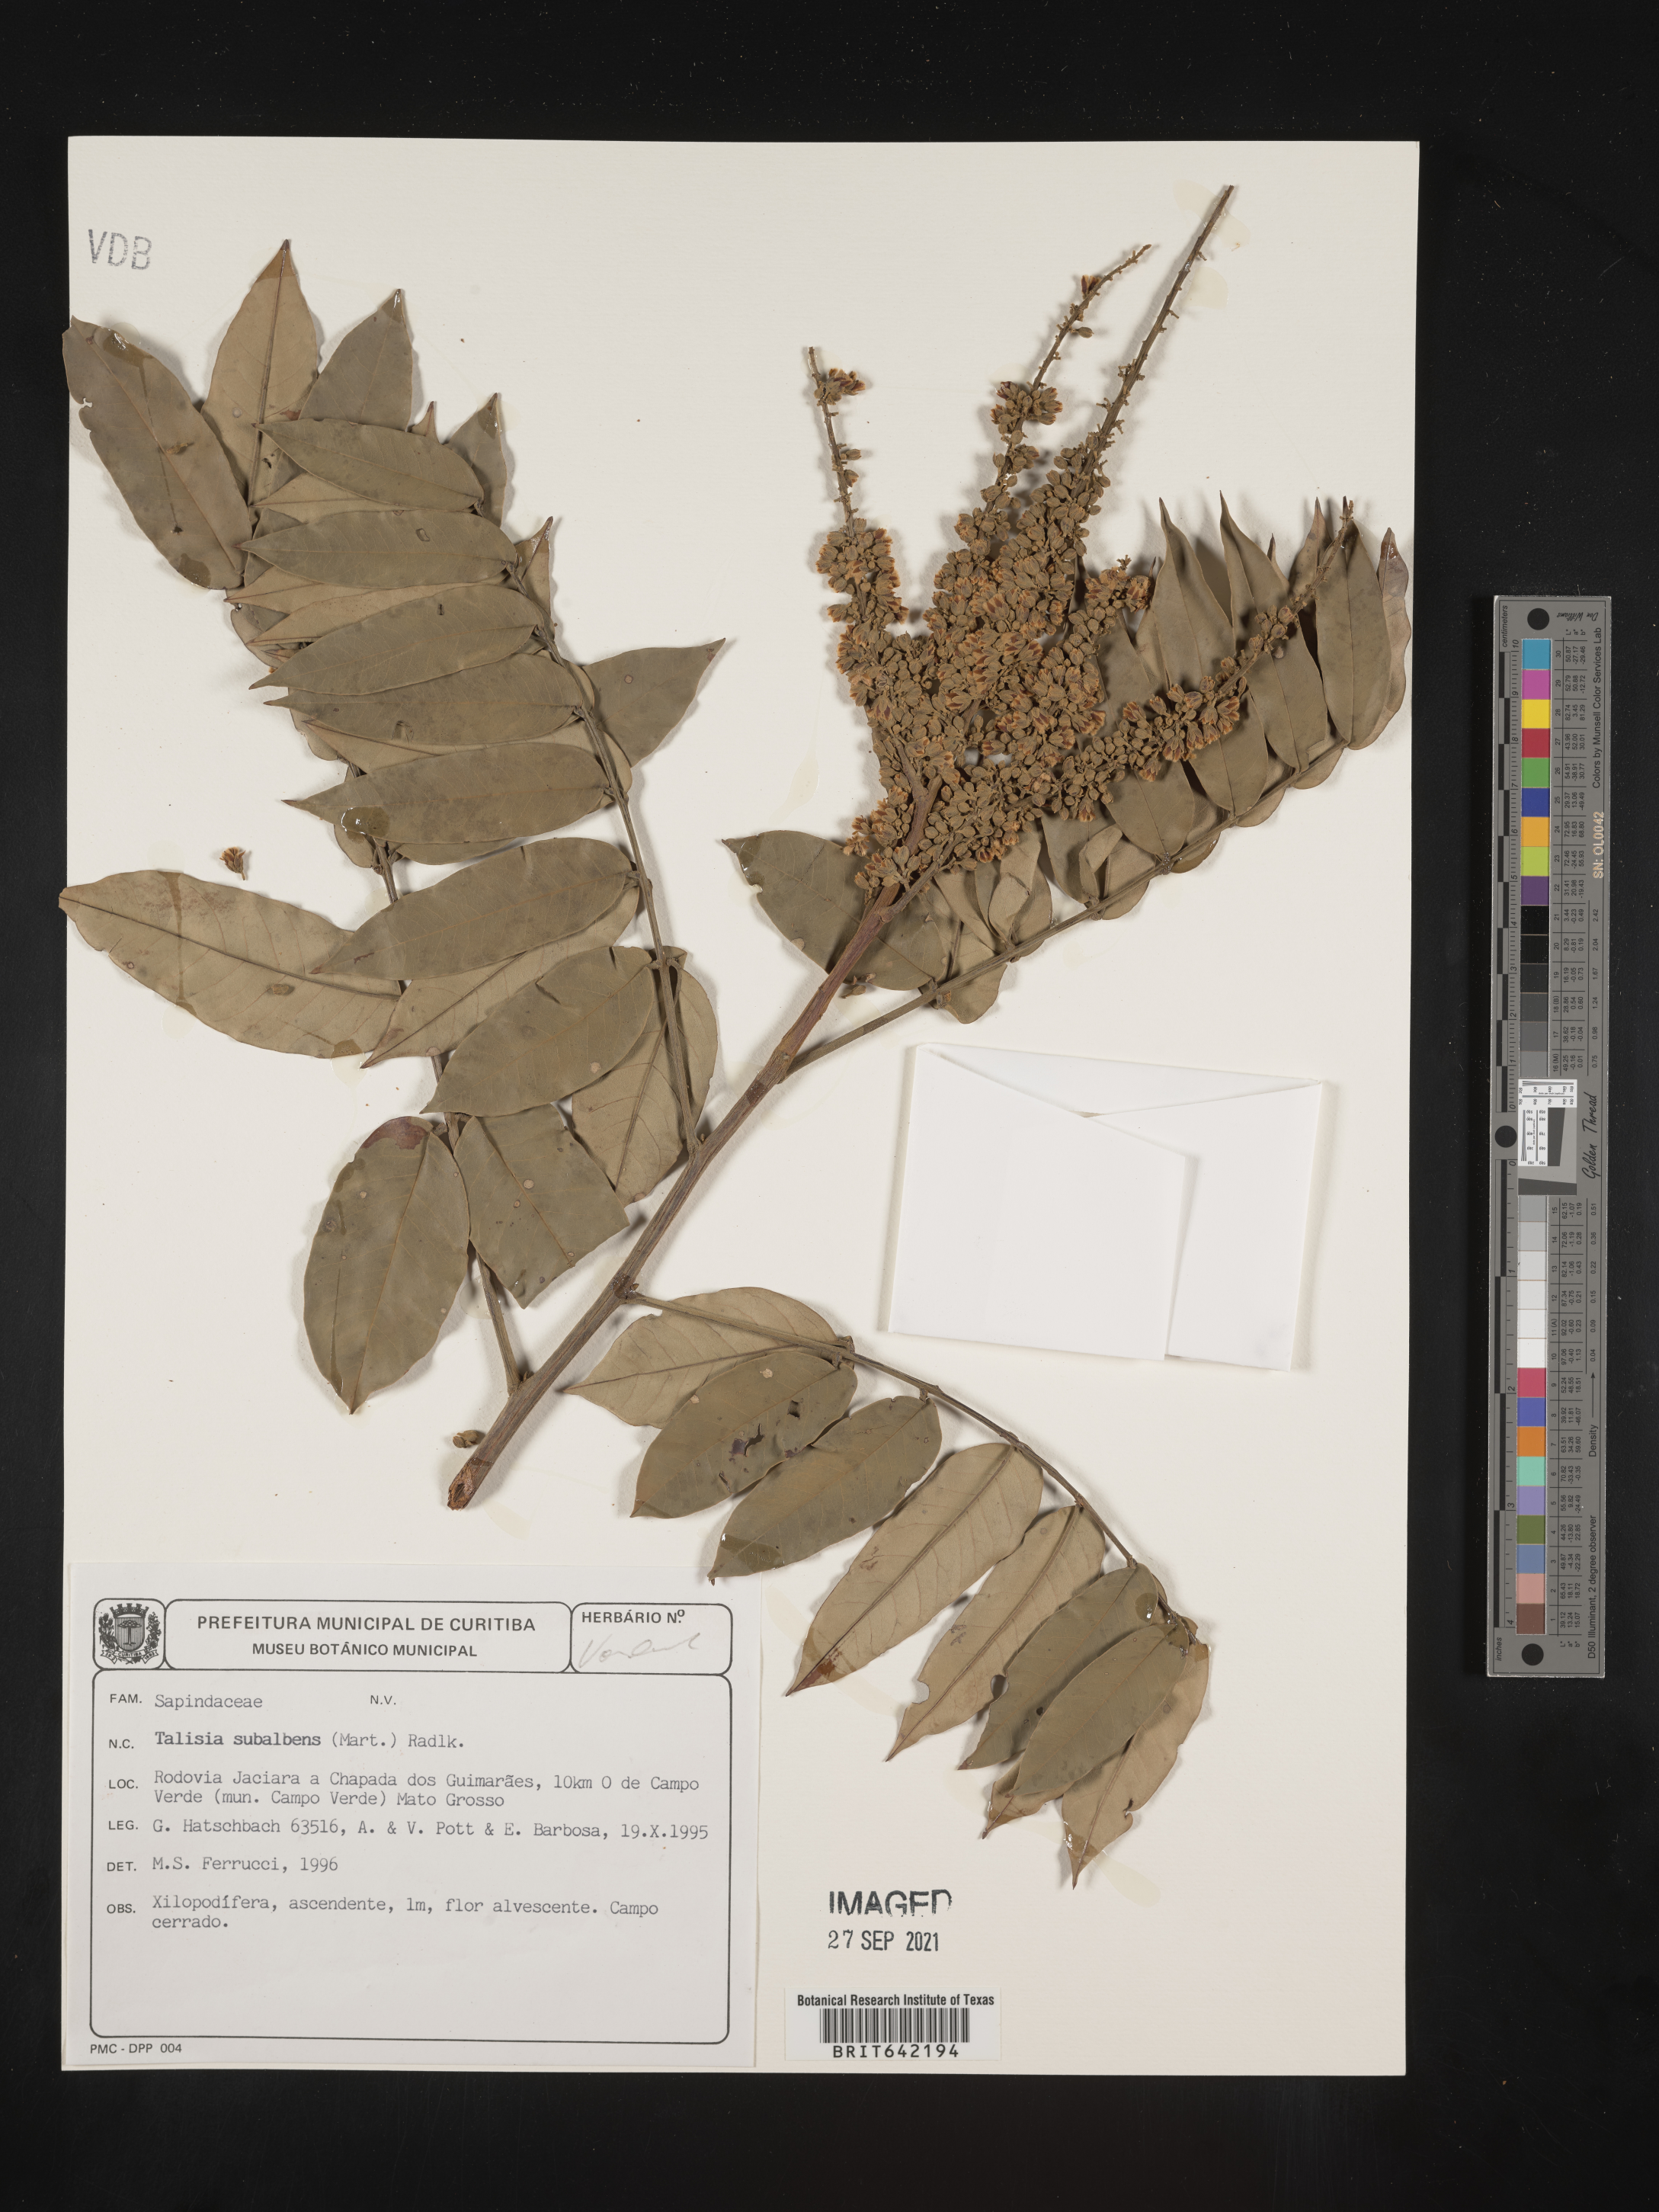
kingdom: Plantae
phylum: Tracheophyta
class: Magnoliopsida
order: Sapindales
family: Sapindaceae
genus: Talisia
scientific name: Talisia
